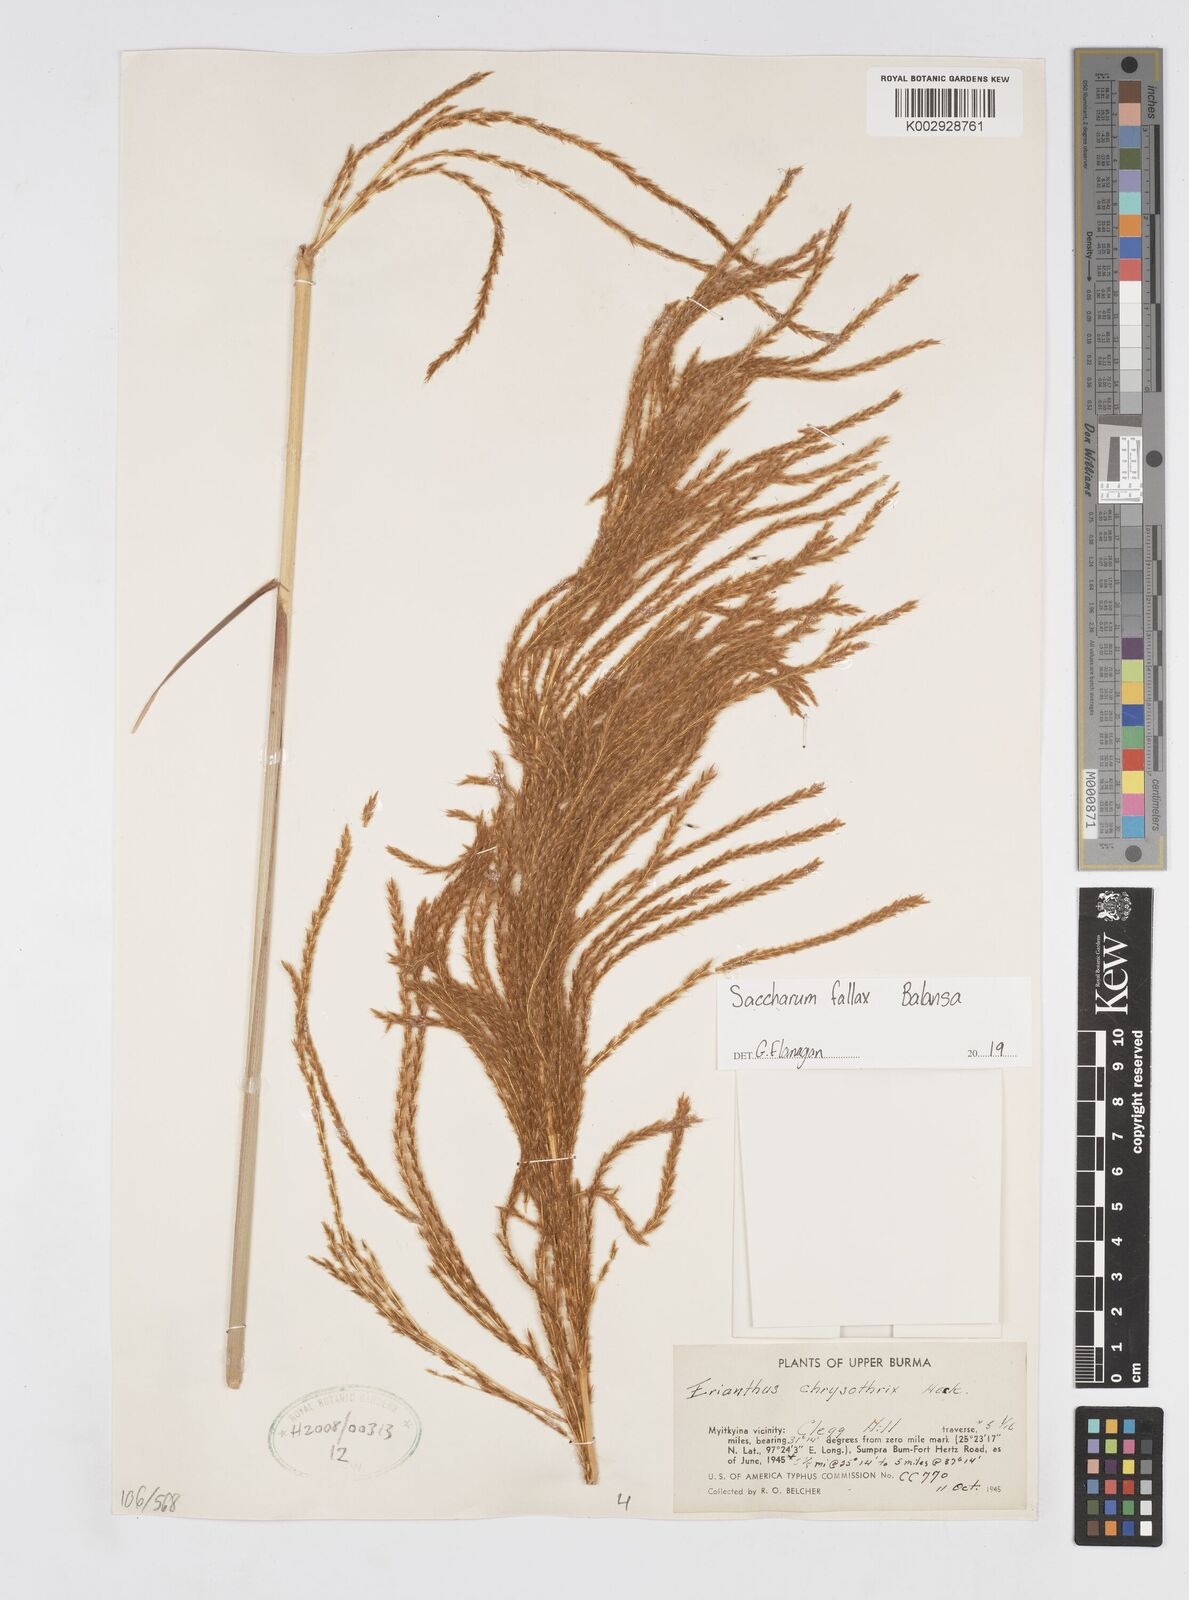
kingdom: Plantae
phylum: Tracheophyta
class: Liliopsida
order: Poales
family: Poaceae
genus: Narenga
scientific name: Narenga fallax
